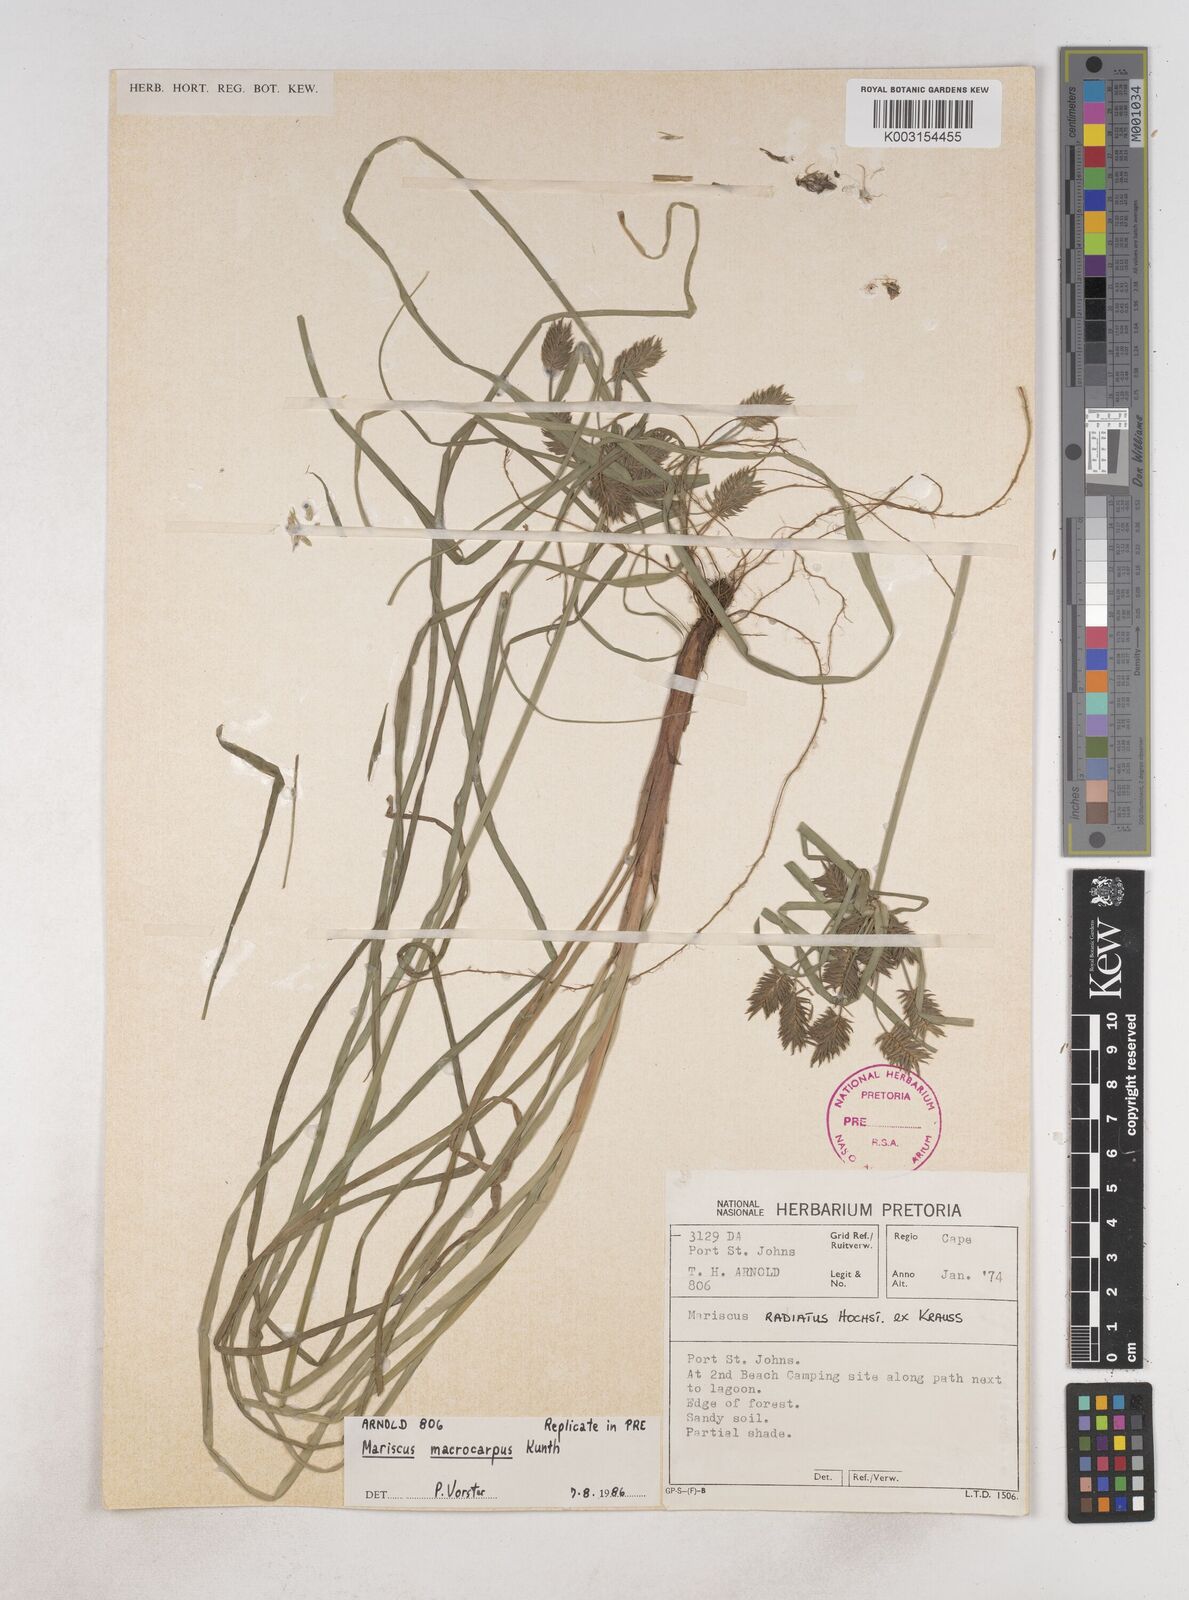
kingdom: Plantae
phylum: Tracheophyta
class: Liliopsida
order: Poales
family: Cyperaceae
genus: Cyperus
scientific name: Cyperus macrocarpus
